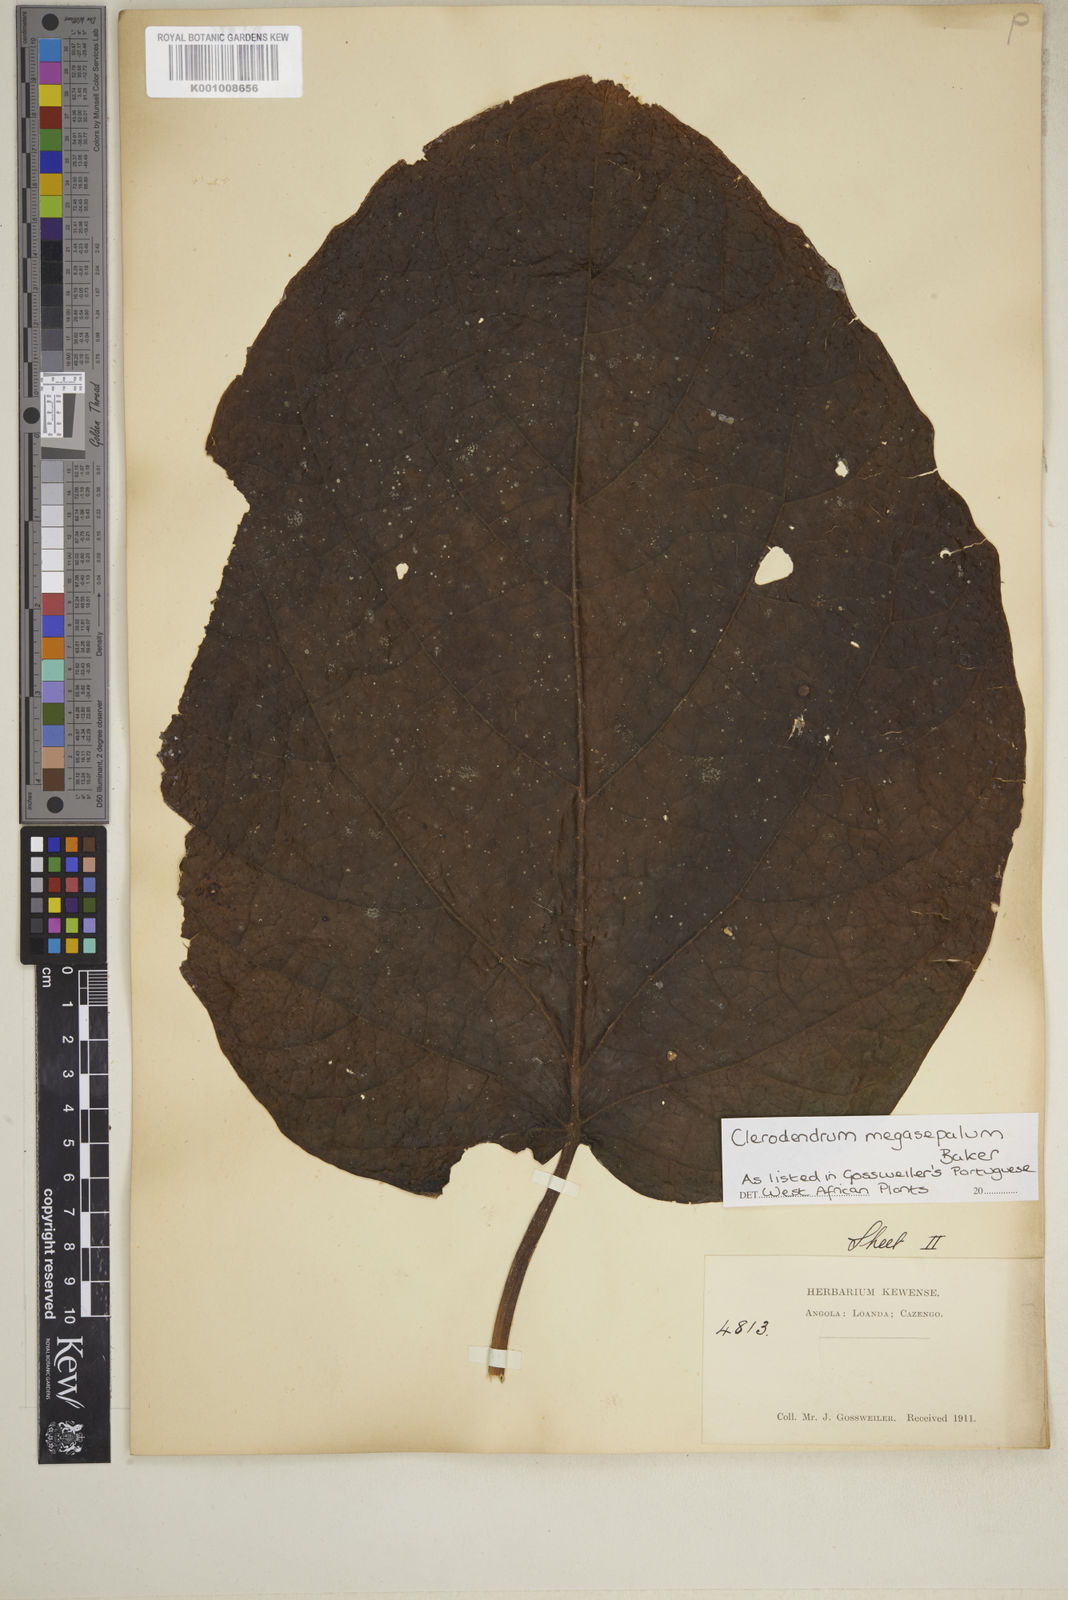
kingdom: Plantae
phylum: Tracheophyta
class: Magnoliopsida
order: Lamiales
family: Lamiaceae
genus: Clerodendrum
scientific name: Clerodendrum poggei
